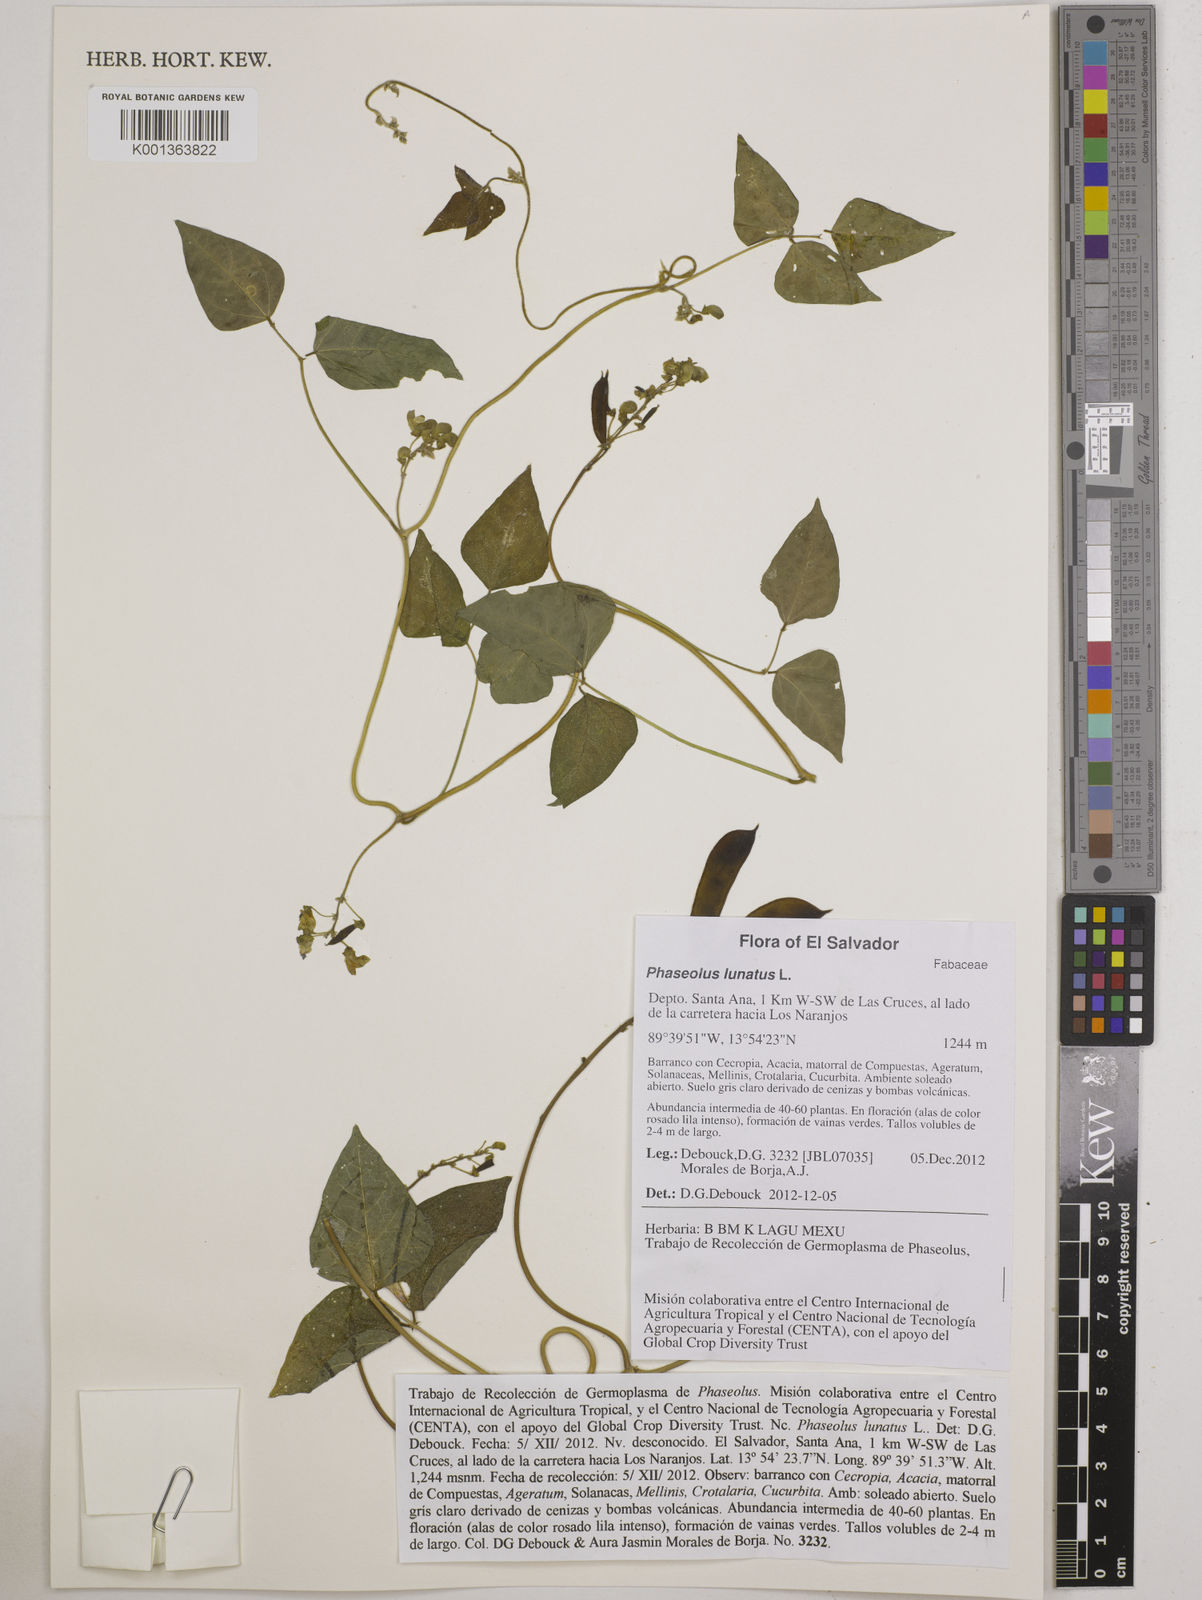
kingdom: Plantae
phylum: Tracheophyta
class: Magnoliopsida
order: Fabales
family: Fabaceae
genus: Phaseolus
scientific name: Phaseolus lunatus
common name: Sieva bean
